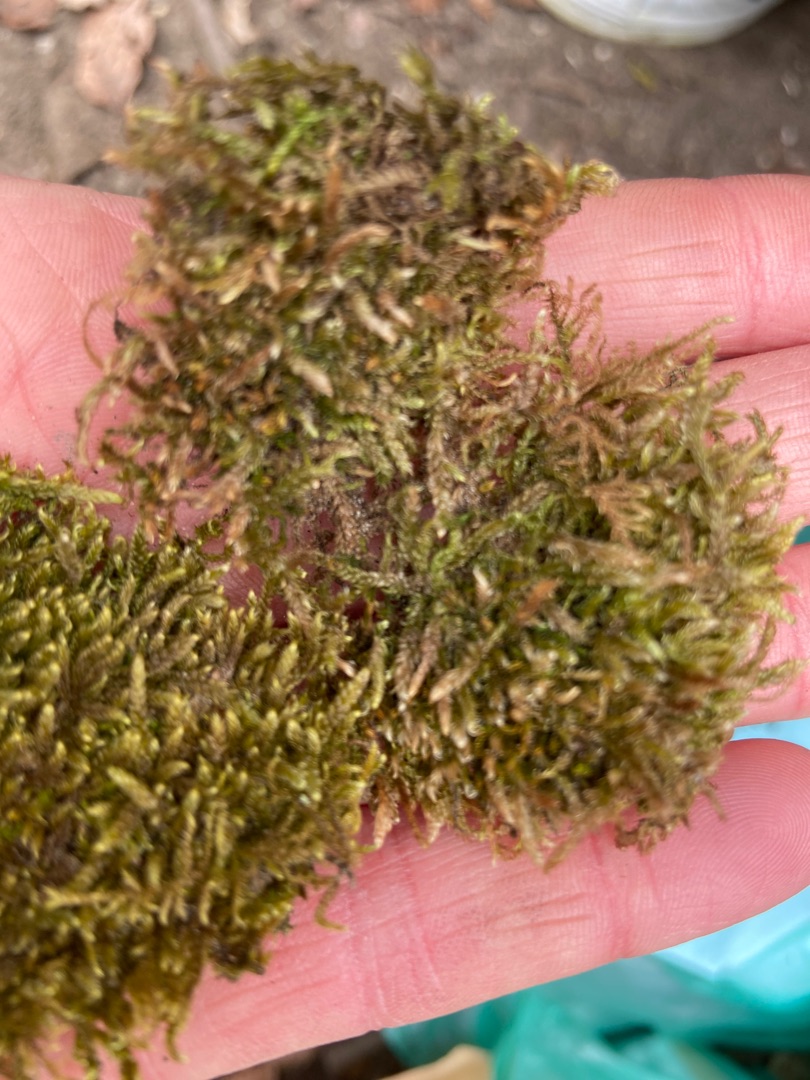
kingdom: Plantae
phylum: Bryophyta
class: Bryopsida
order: Hypnales
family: Hypnaceae
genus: Hypnum
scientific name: Hypnum cupressiforme
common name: Almindelig cypresmos
